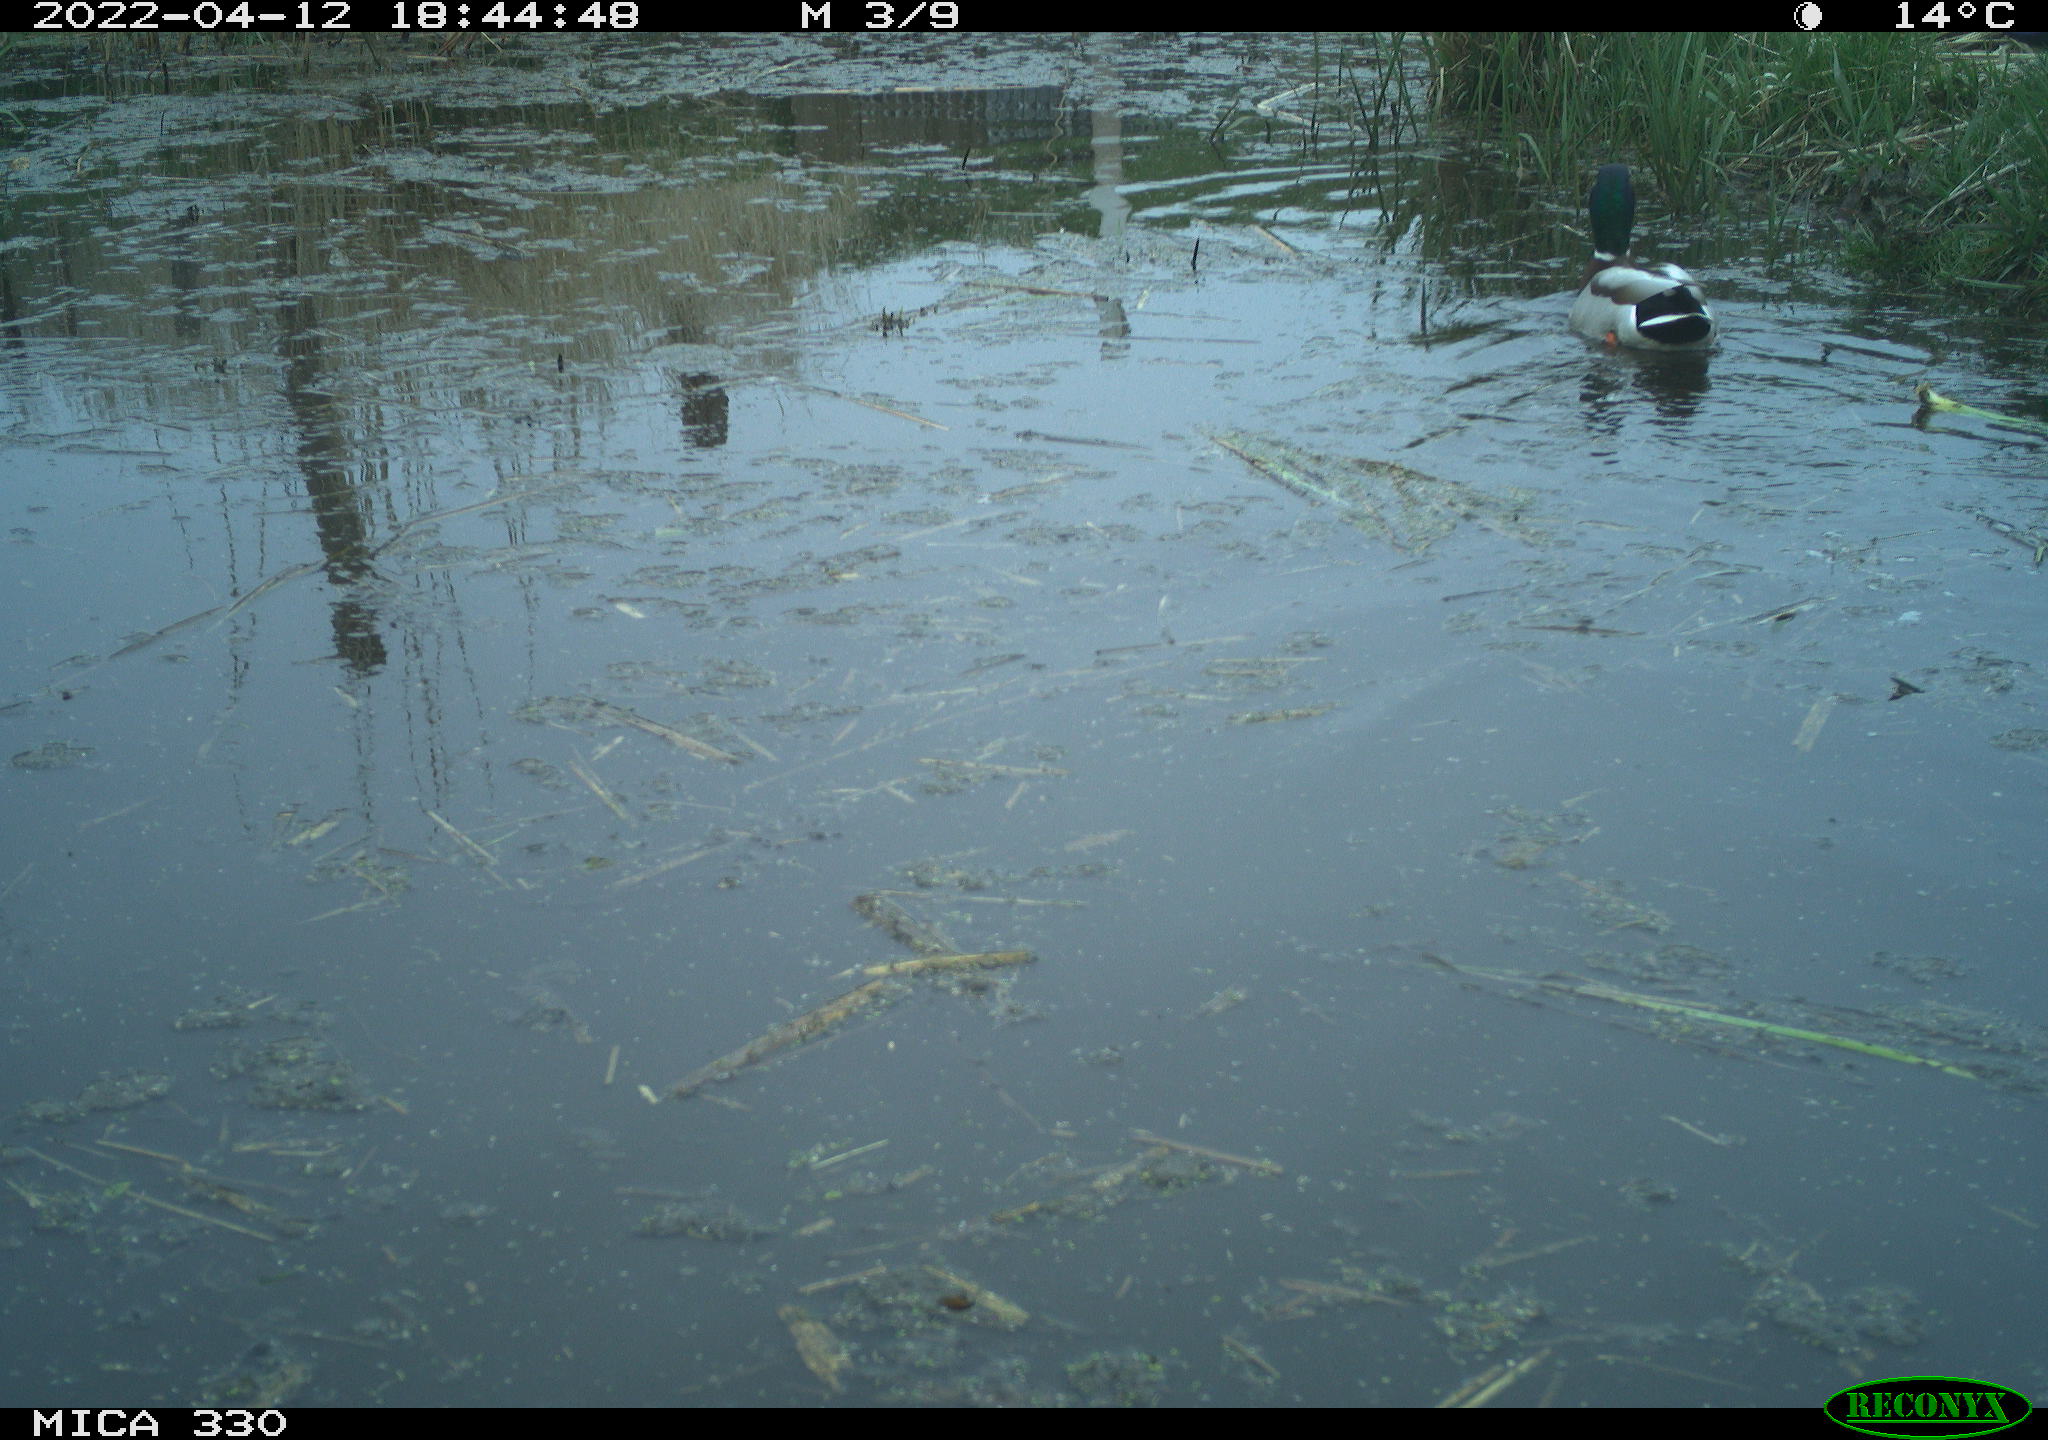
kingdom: Animalia
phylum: Chordata
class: Aves
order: Anseriformes
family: Anatidae
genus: Anas
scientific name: Anas platyrhynchos
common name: Mallard
